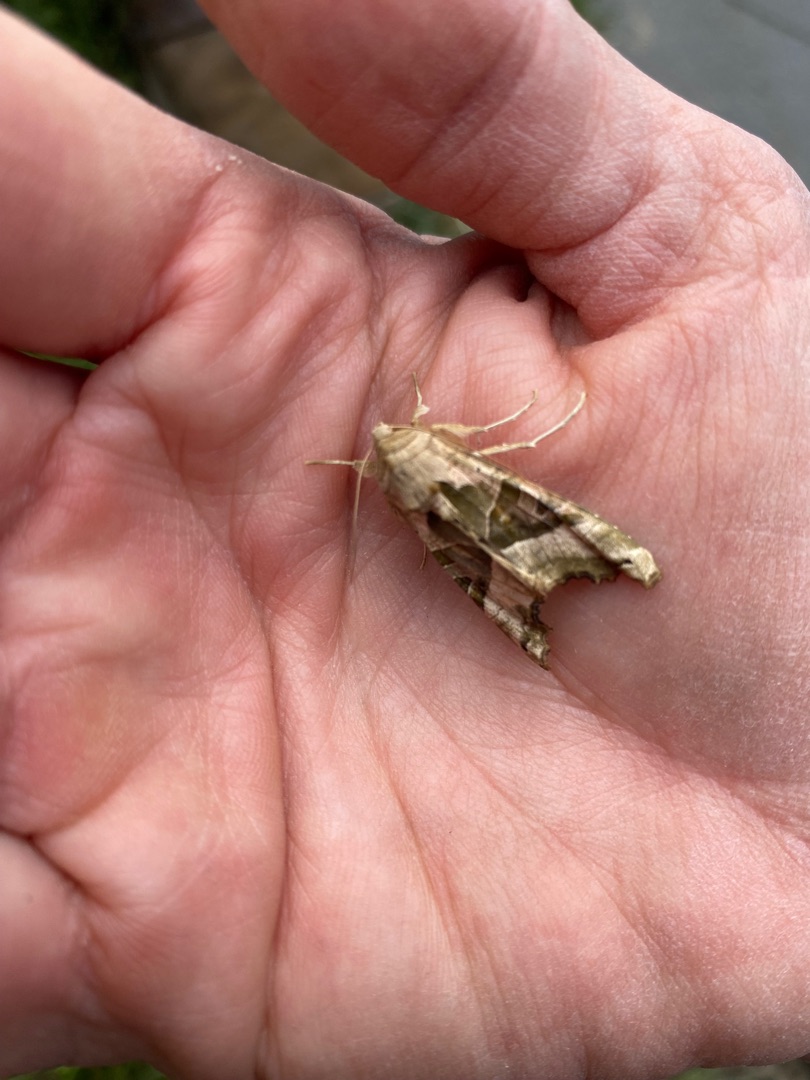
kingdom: Animalia
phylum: Arthropoda
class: Insecta
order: Lepidoptera
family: Noctuidae
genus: Phlogophora
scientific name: Phlogophora meticulosa
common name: Agatugle
